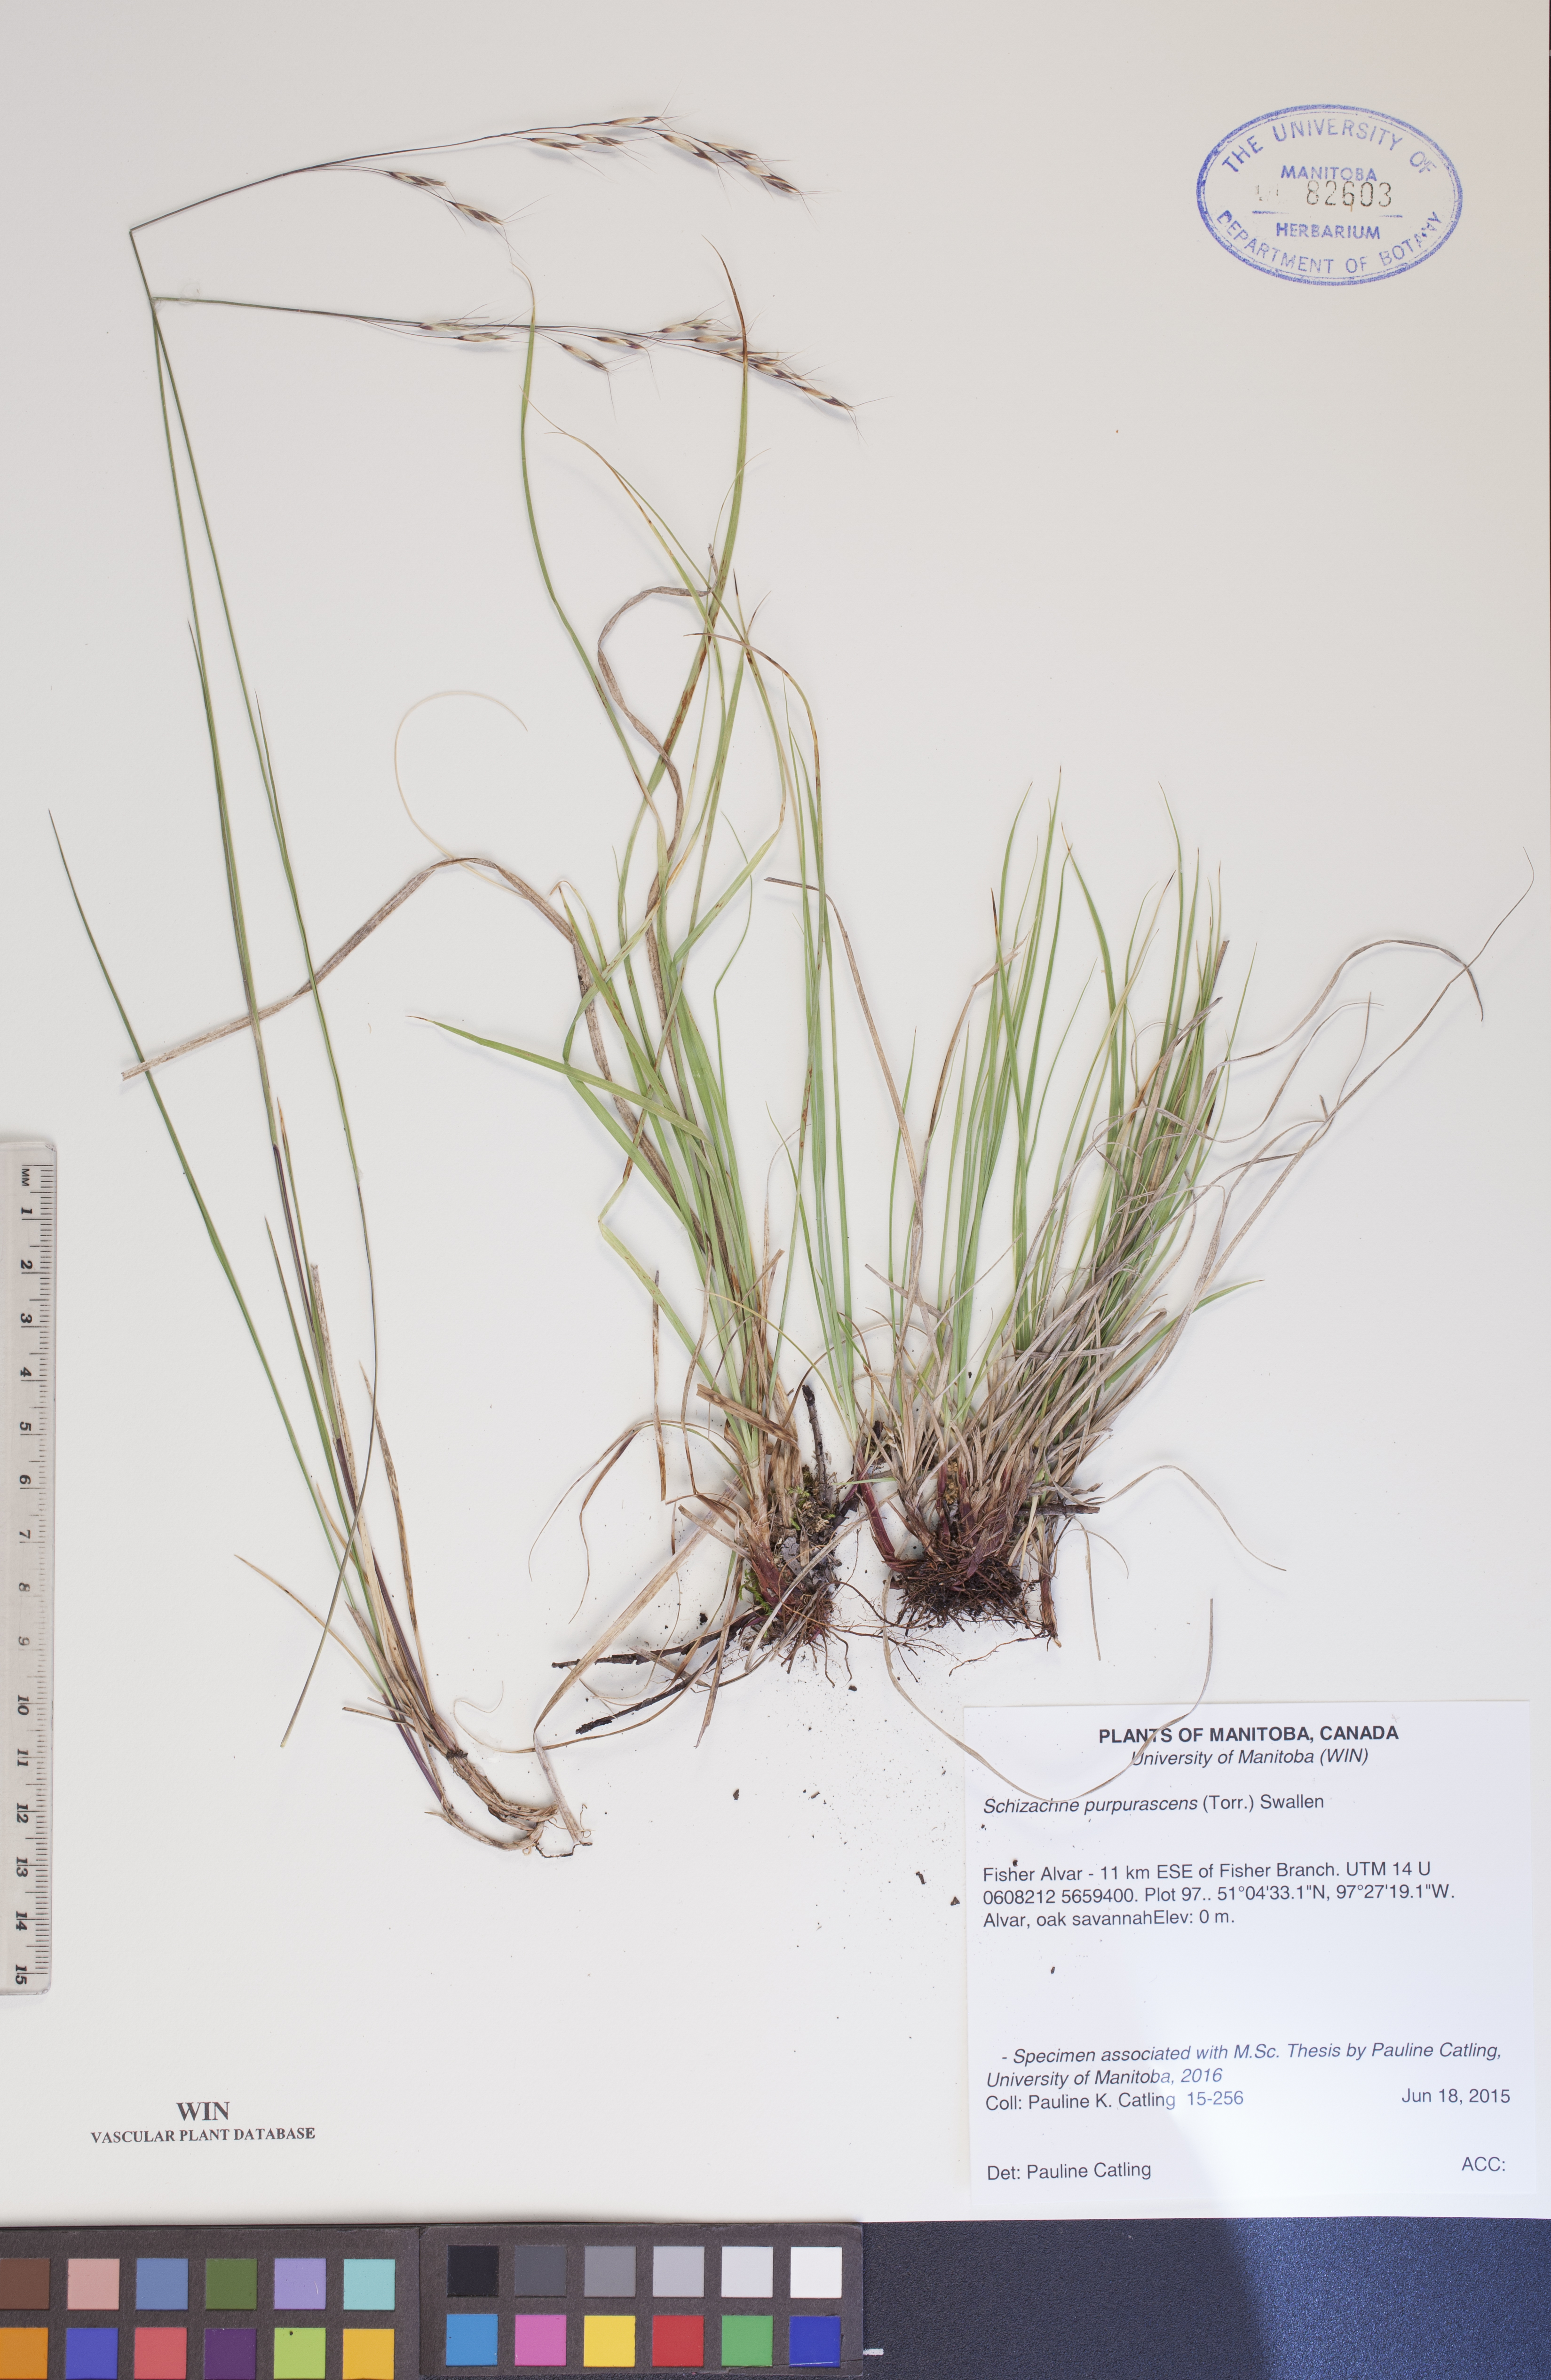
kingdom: Plantae
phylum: Tracheophyta
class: Liliopsida
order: Poales
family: Poaceae
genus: Schizachne
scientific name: Schizachne purpurascens
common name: False melic
